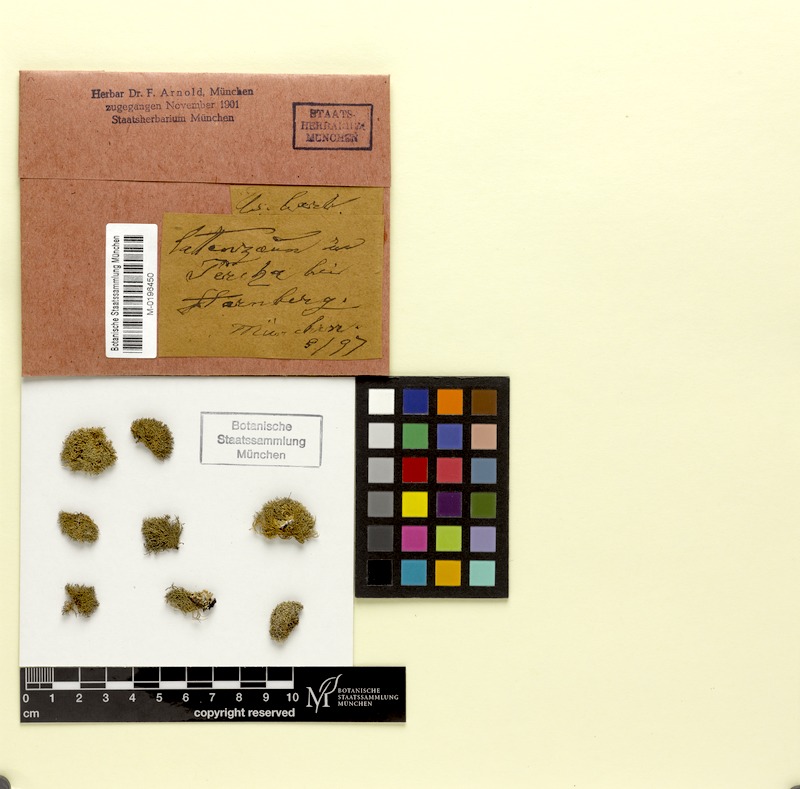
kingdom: Fungi
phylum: Ascomycota
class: Lecanoromycetes
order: Lecanorales
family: Parmeliaceae
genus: Usnea
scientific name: Usnea barbata
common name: Old man's beard lichen
